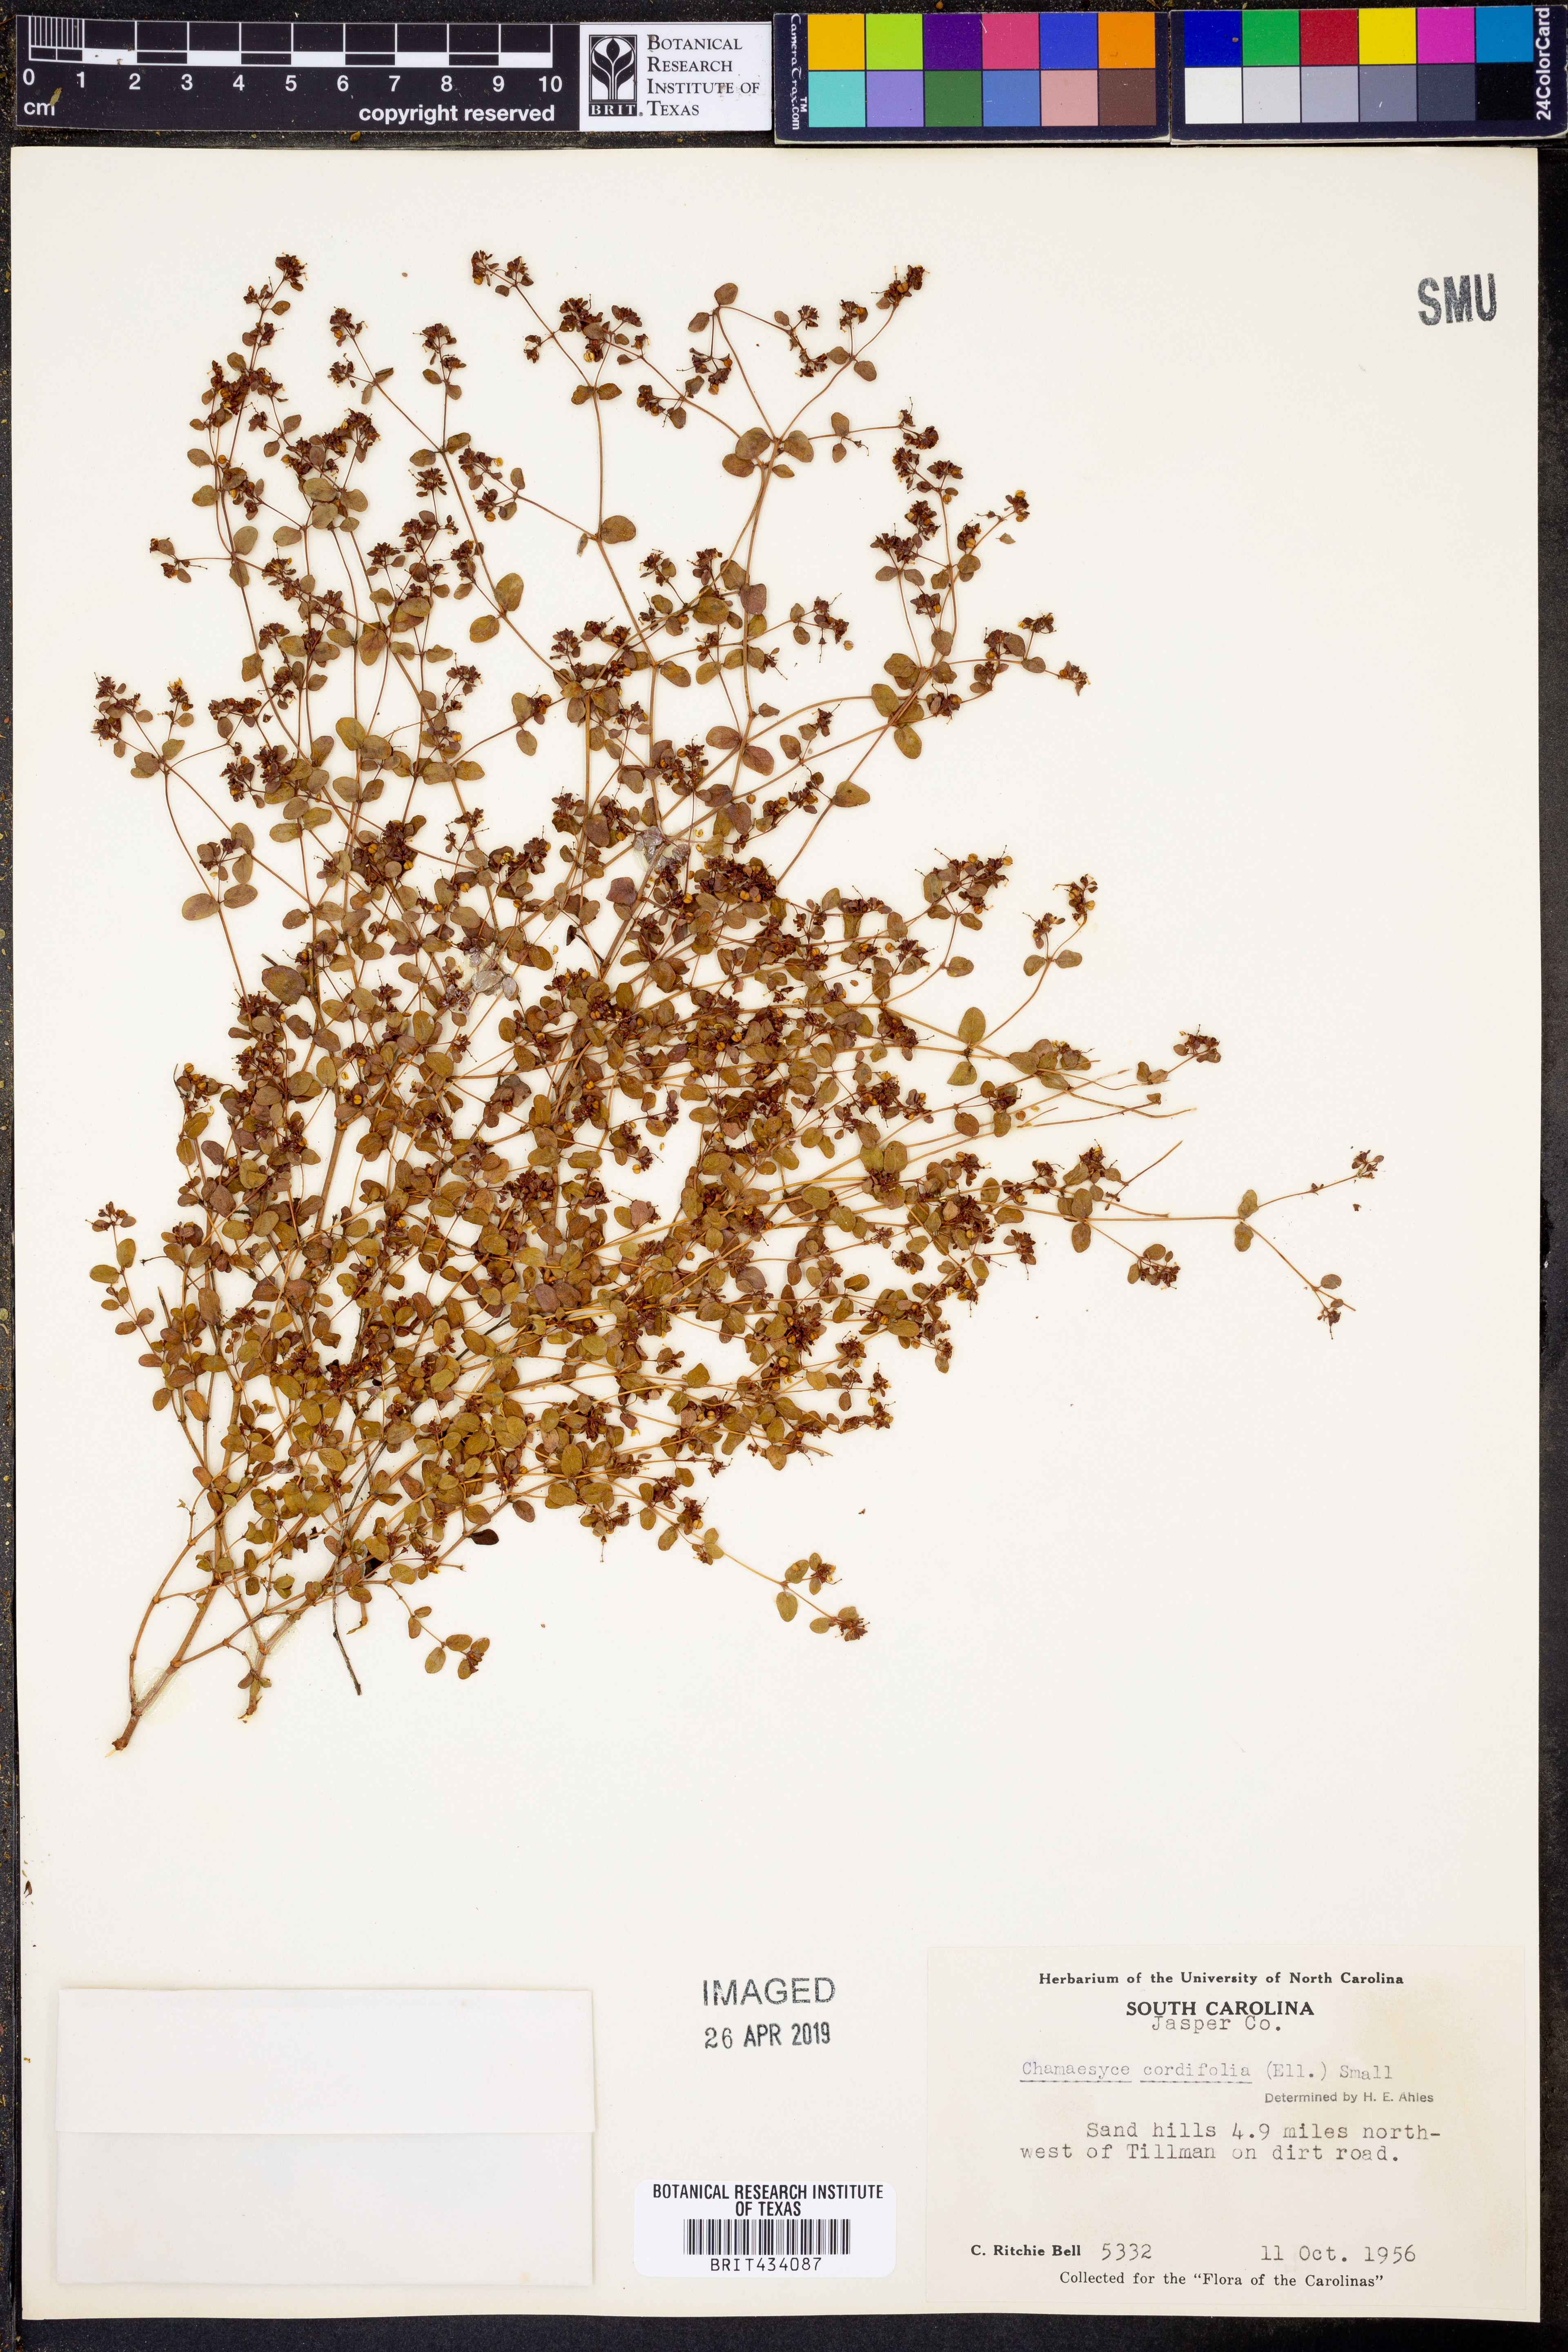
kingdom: Plantae
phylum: Tracheophyta
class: Magnoliopsida
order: Malpighiales
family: Euphorbiaceae
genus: Euphorbia
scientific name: Euphorbia cordifolia
